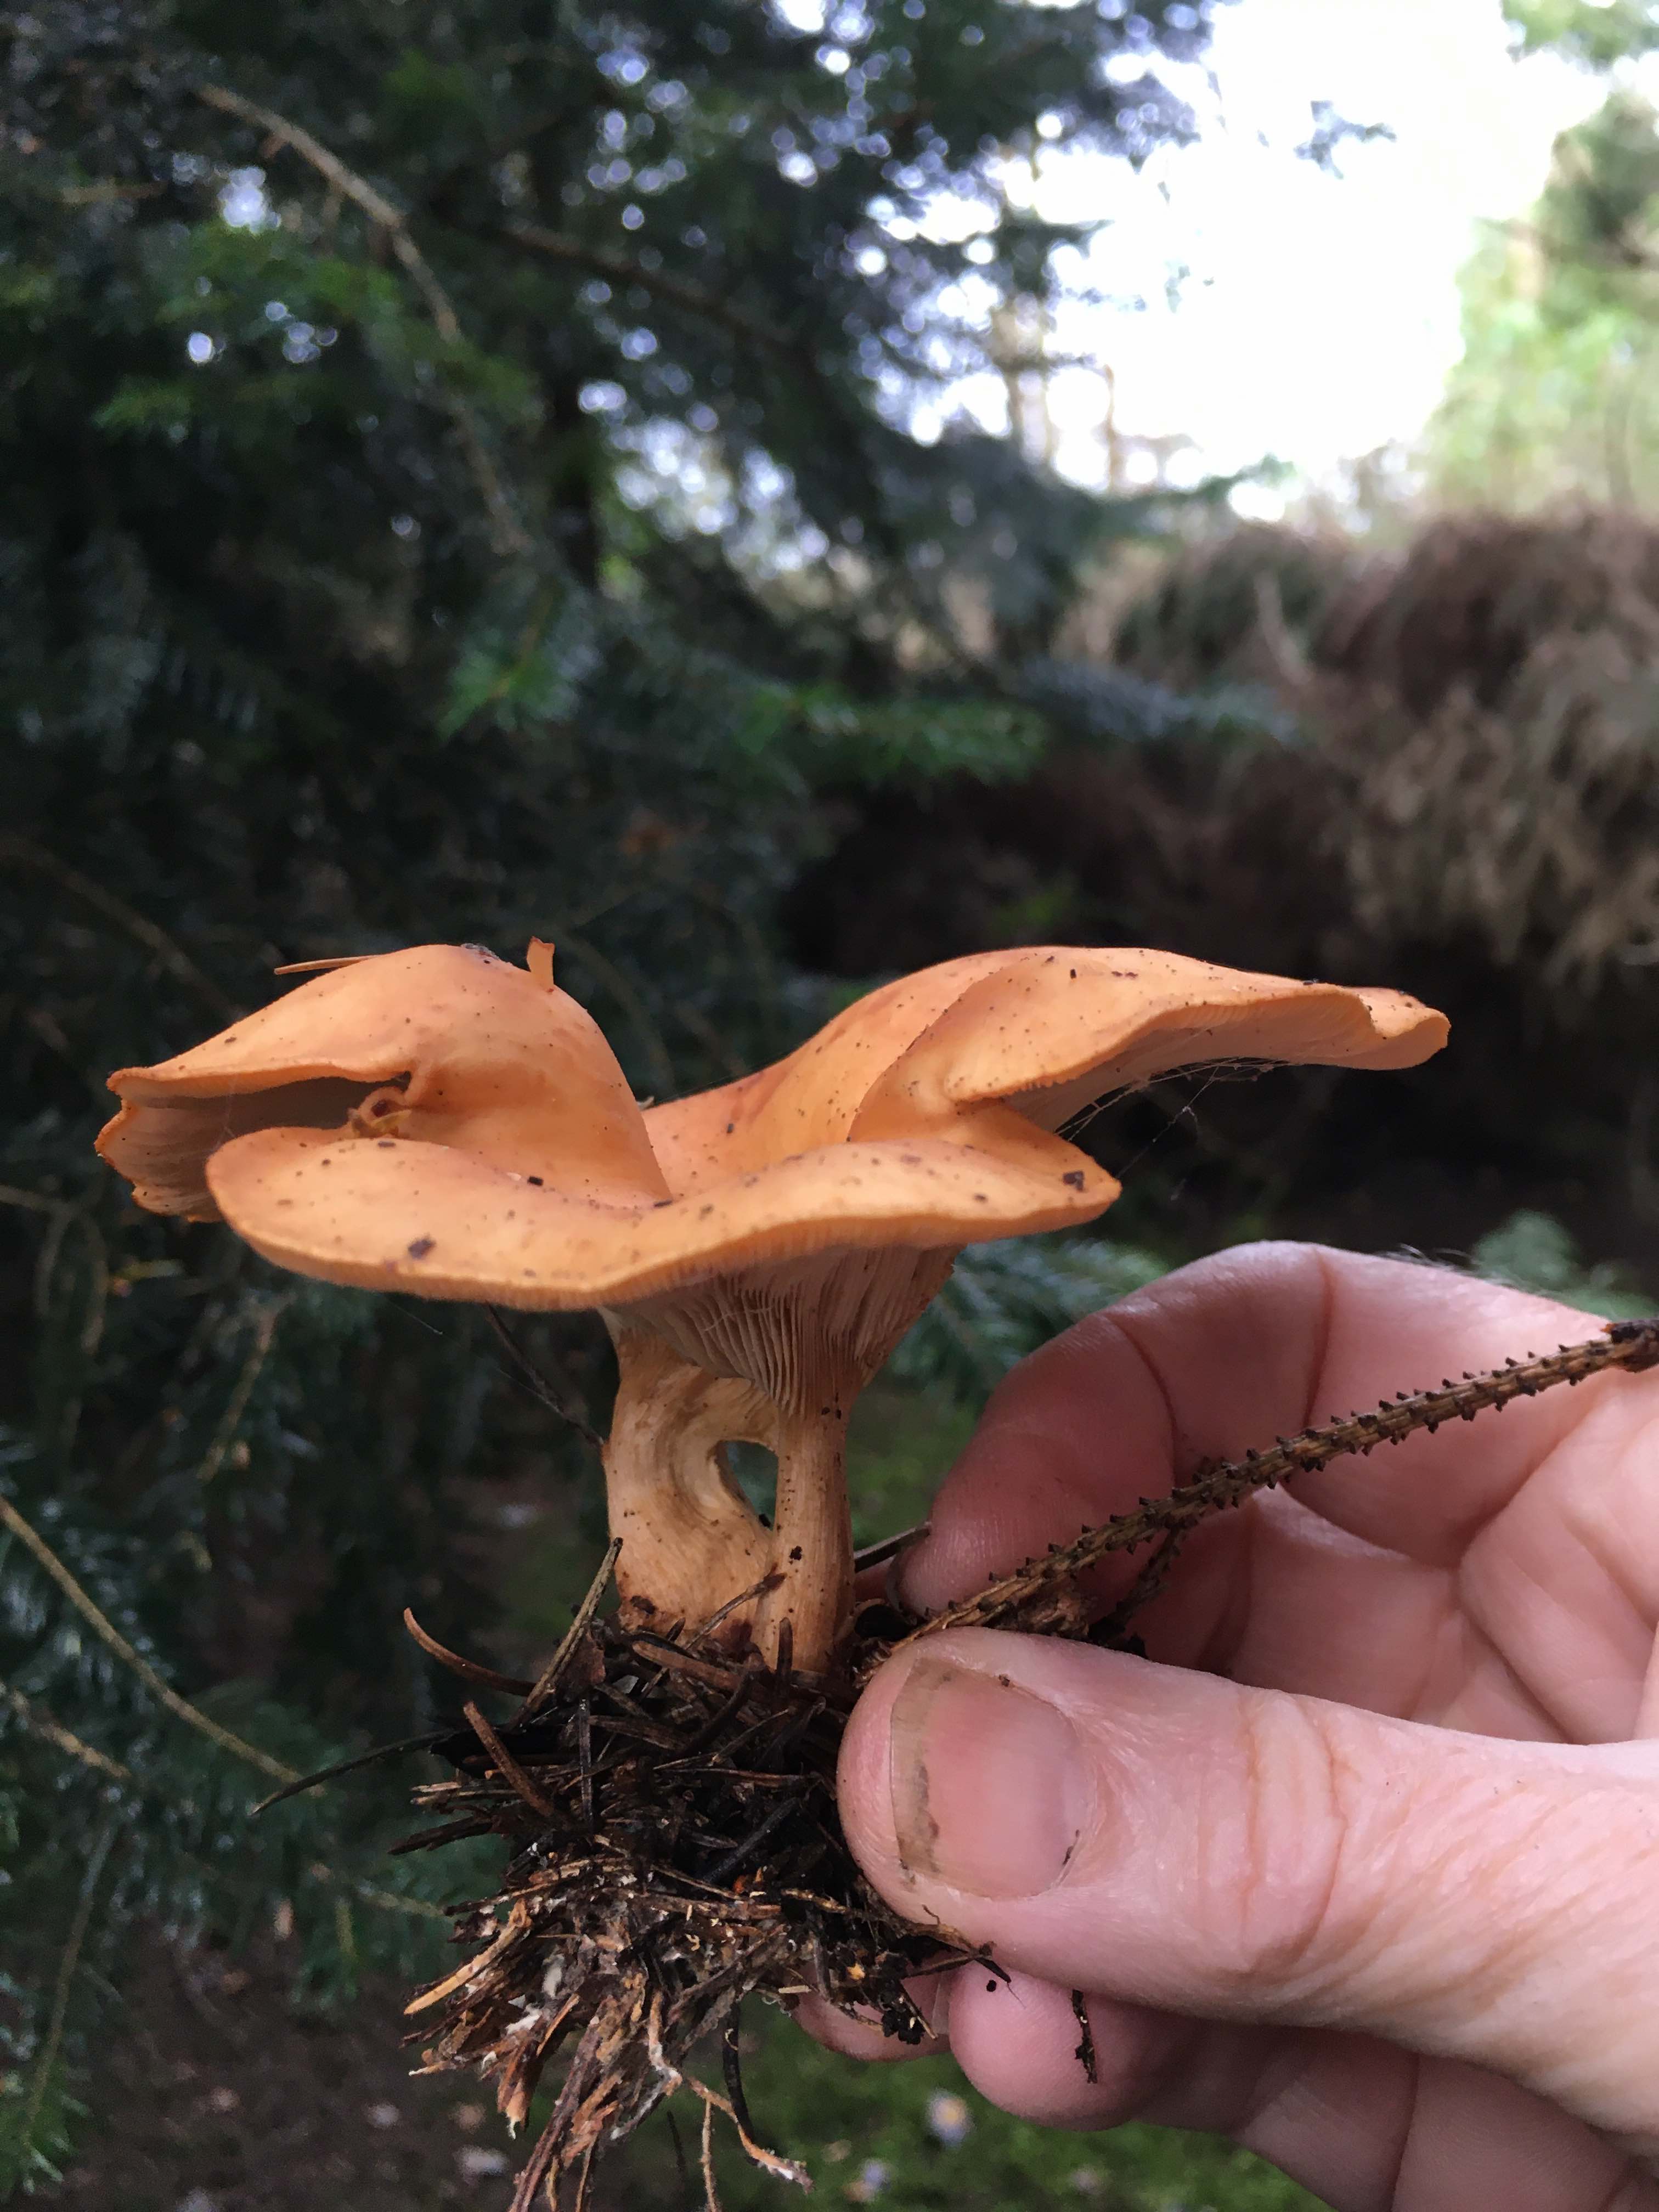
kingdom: Fungi
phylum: Basidiomycota
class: Agaricomycetes
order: Agaricales
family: Tricholomataceae
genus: Paralepista
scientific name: Paralepista flaccida
